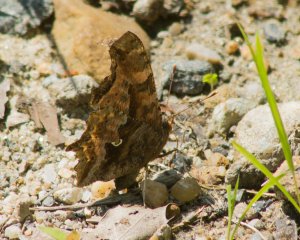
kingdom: Animalia
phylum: Arthropoda
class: Insecta
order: Lepidoptera
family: Nymphalidae
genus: Polygonia
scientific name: Polygonia comma
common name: Eastern Comma
